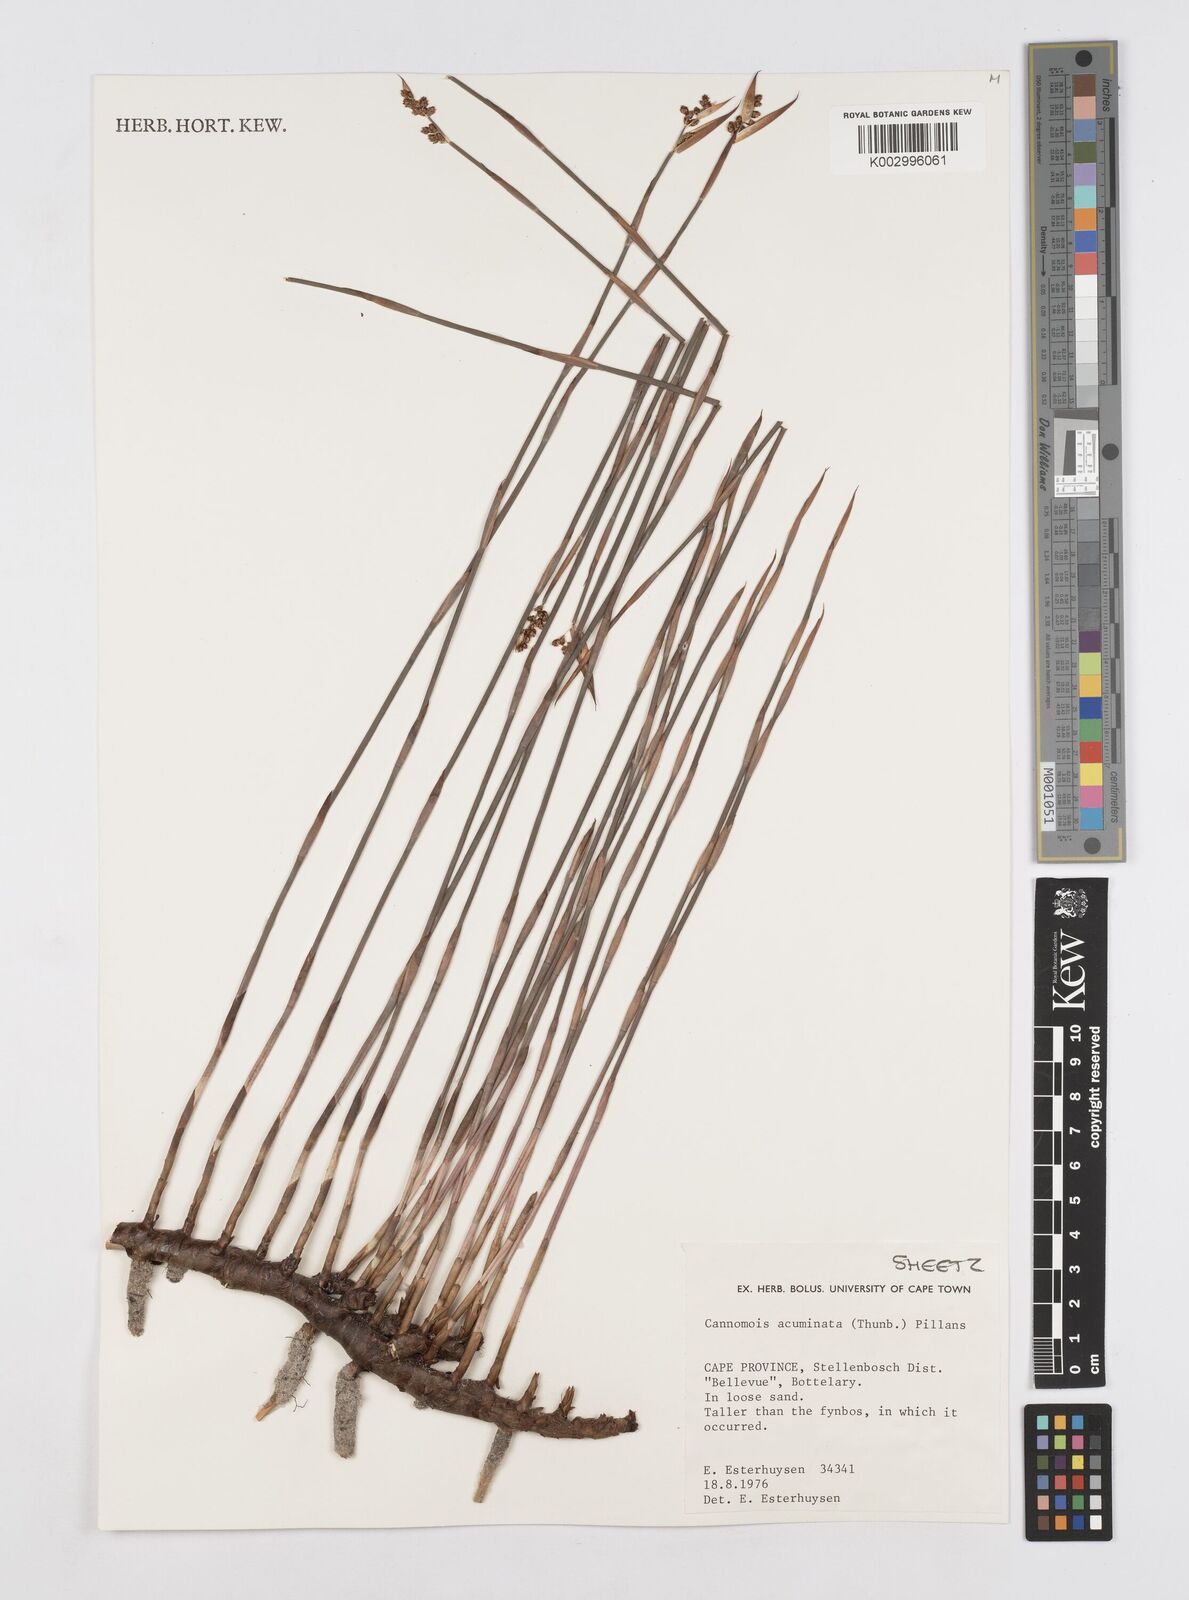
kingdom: Plantae
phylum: Tracheophyta
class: Liliopsida
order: Poales
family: Restionaceae
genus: Cannomois
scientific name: Cannomois parviflora
